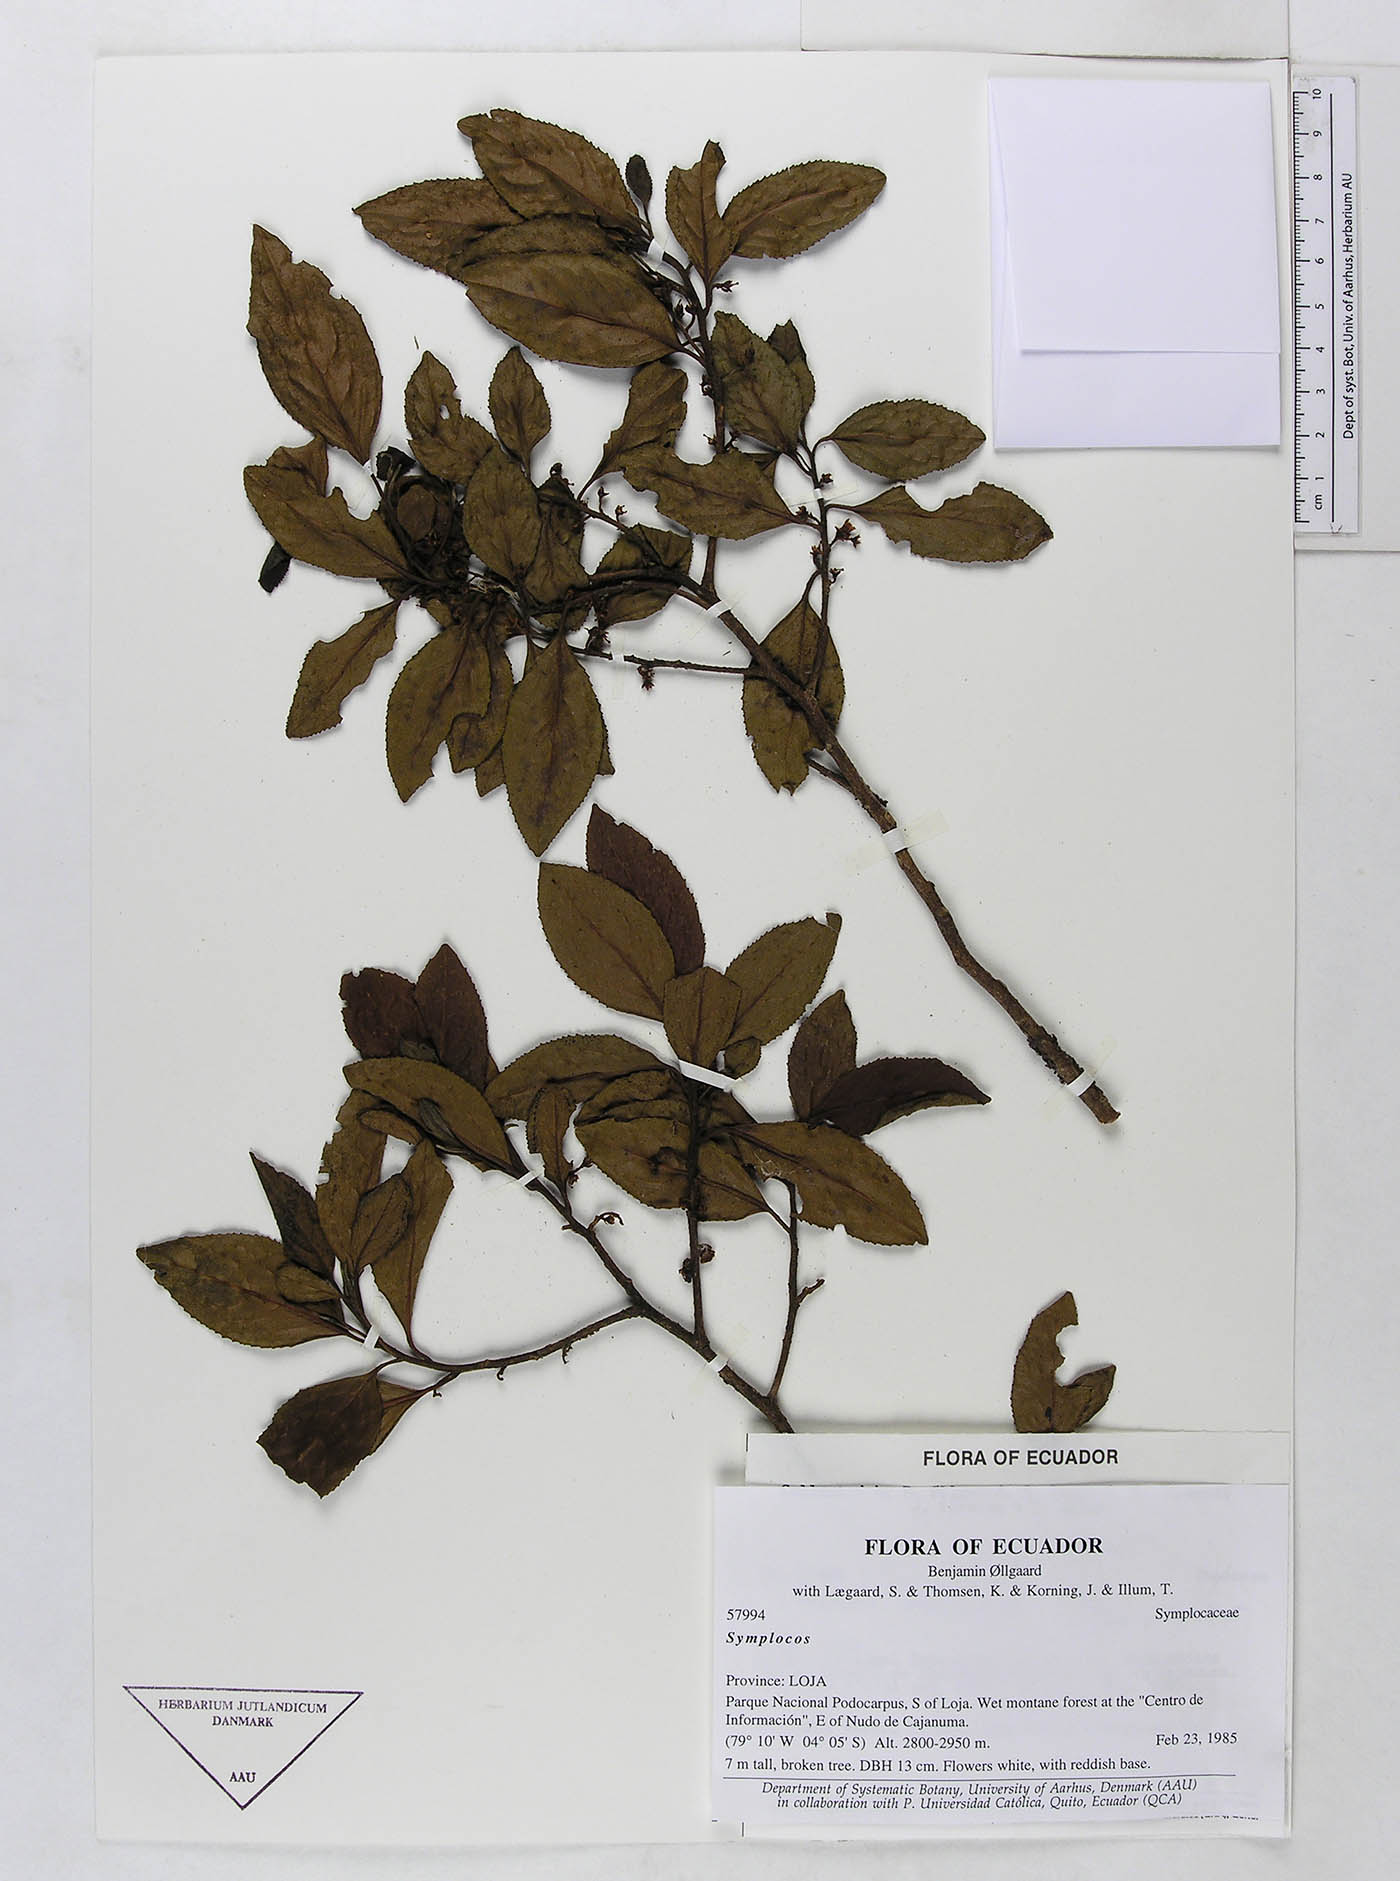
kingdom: Plantae
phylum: Tracheophyta
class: Magnoliopsida
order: Ericales
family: Symplocaceae
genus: Symplocos
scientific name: Symplocos quitensis
